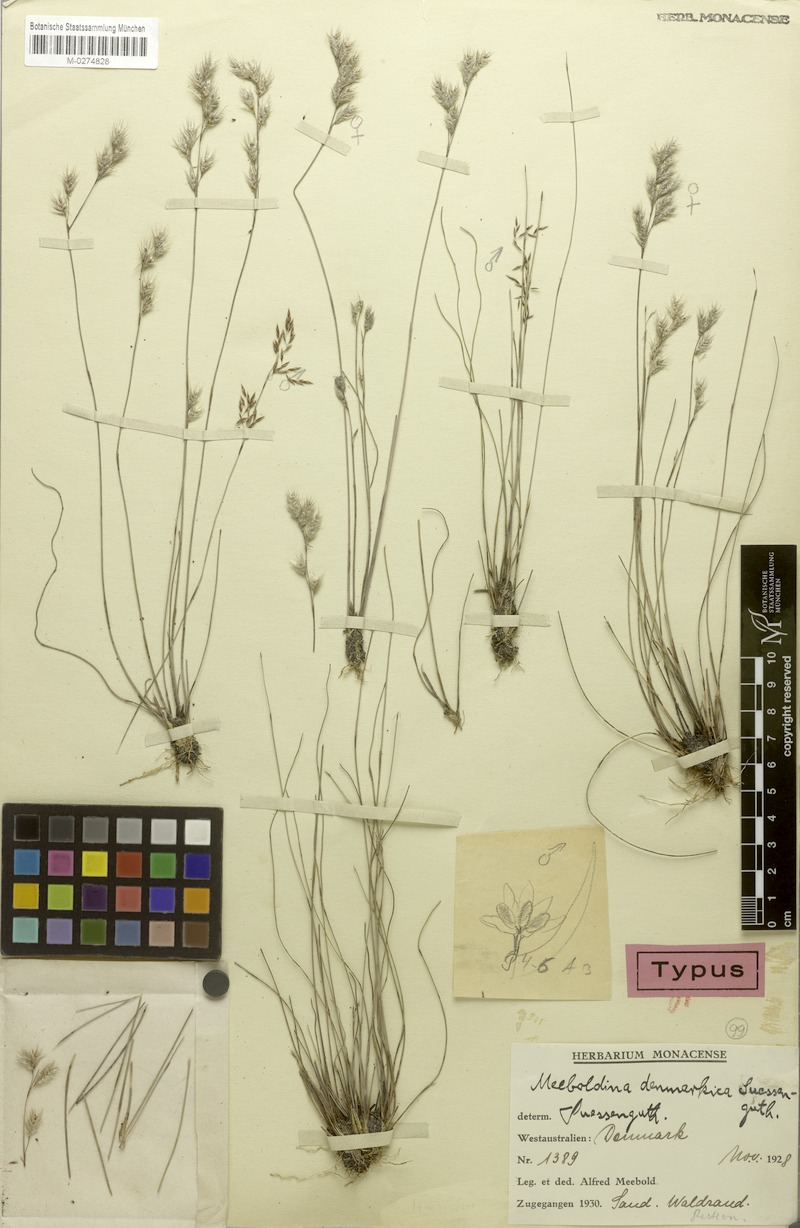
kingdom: Plantae
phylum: Tracheophyta
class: Liliopsida
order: Poales
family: Restionaceae
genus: Leptocarpus
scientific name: Leptocarpus denmarkicus
